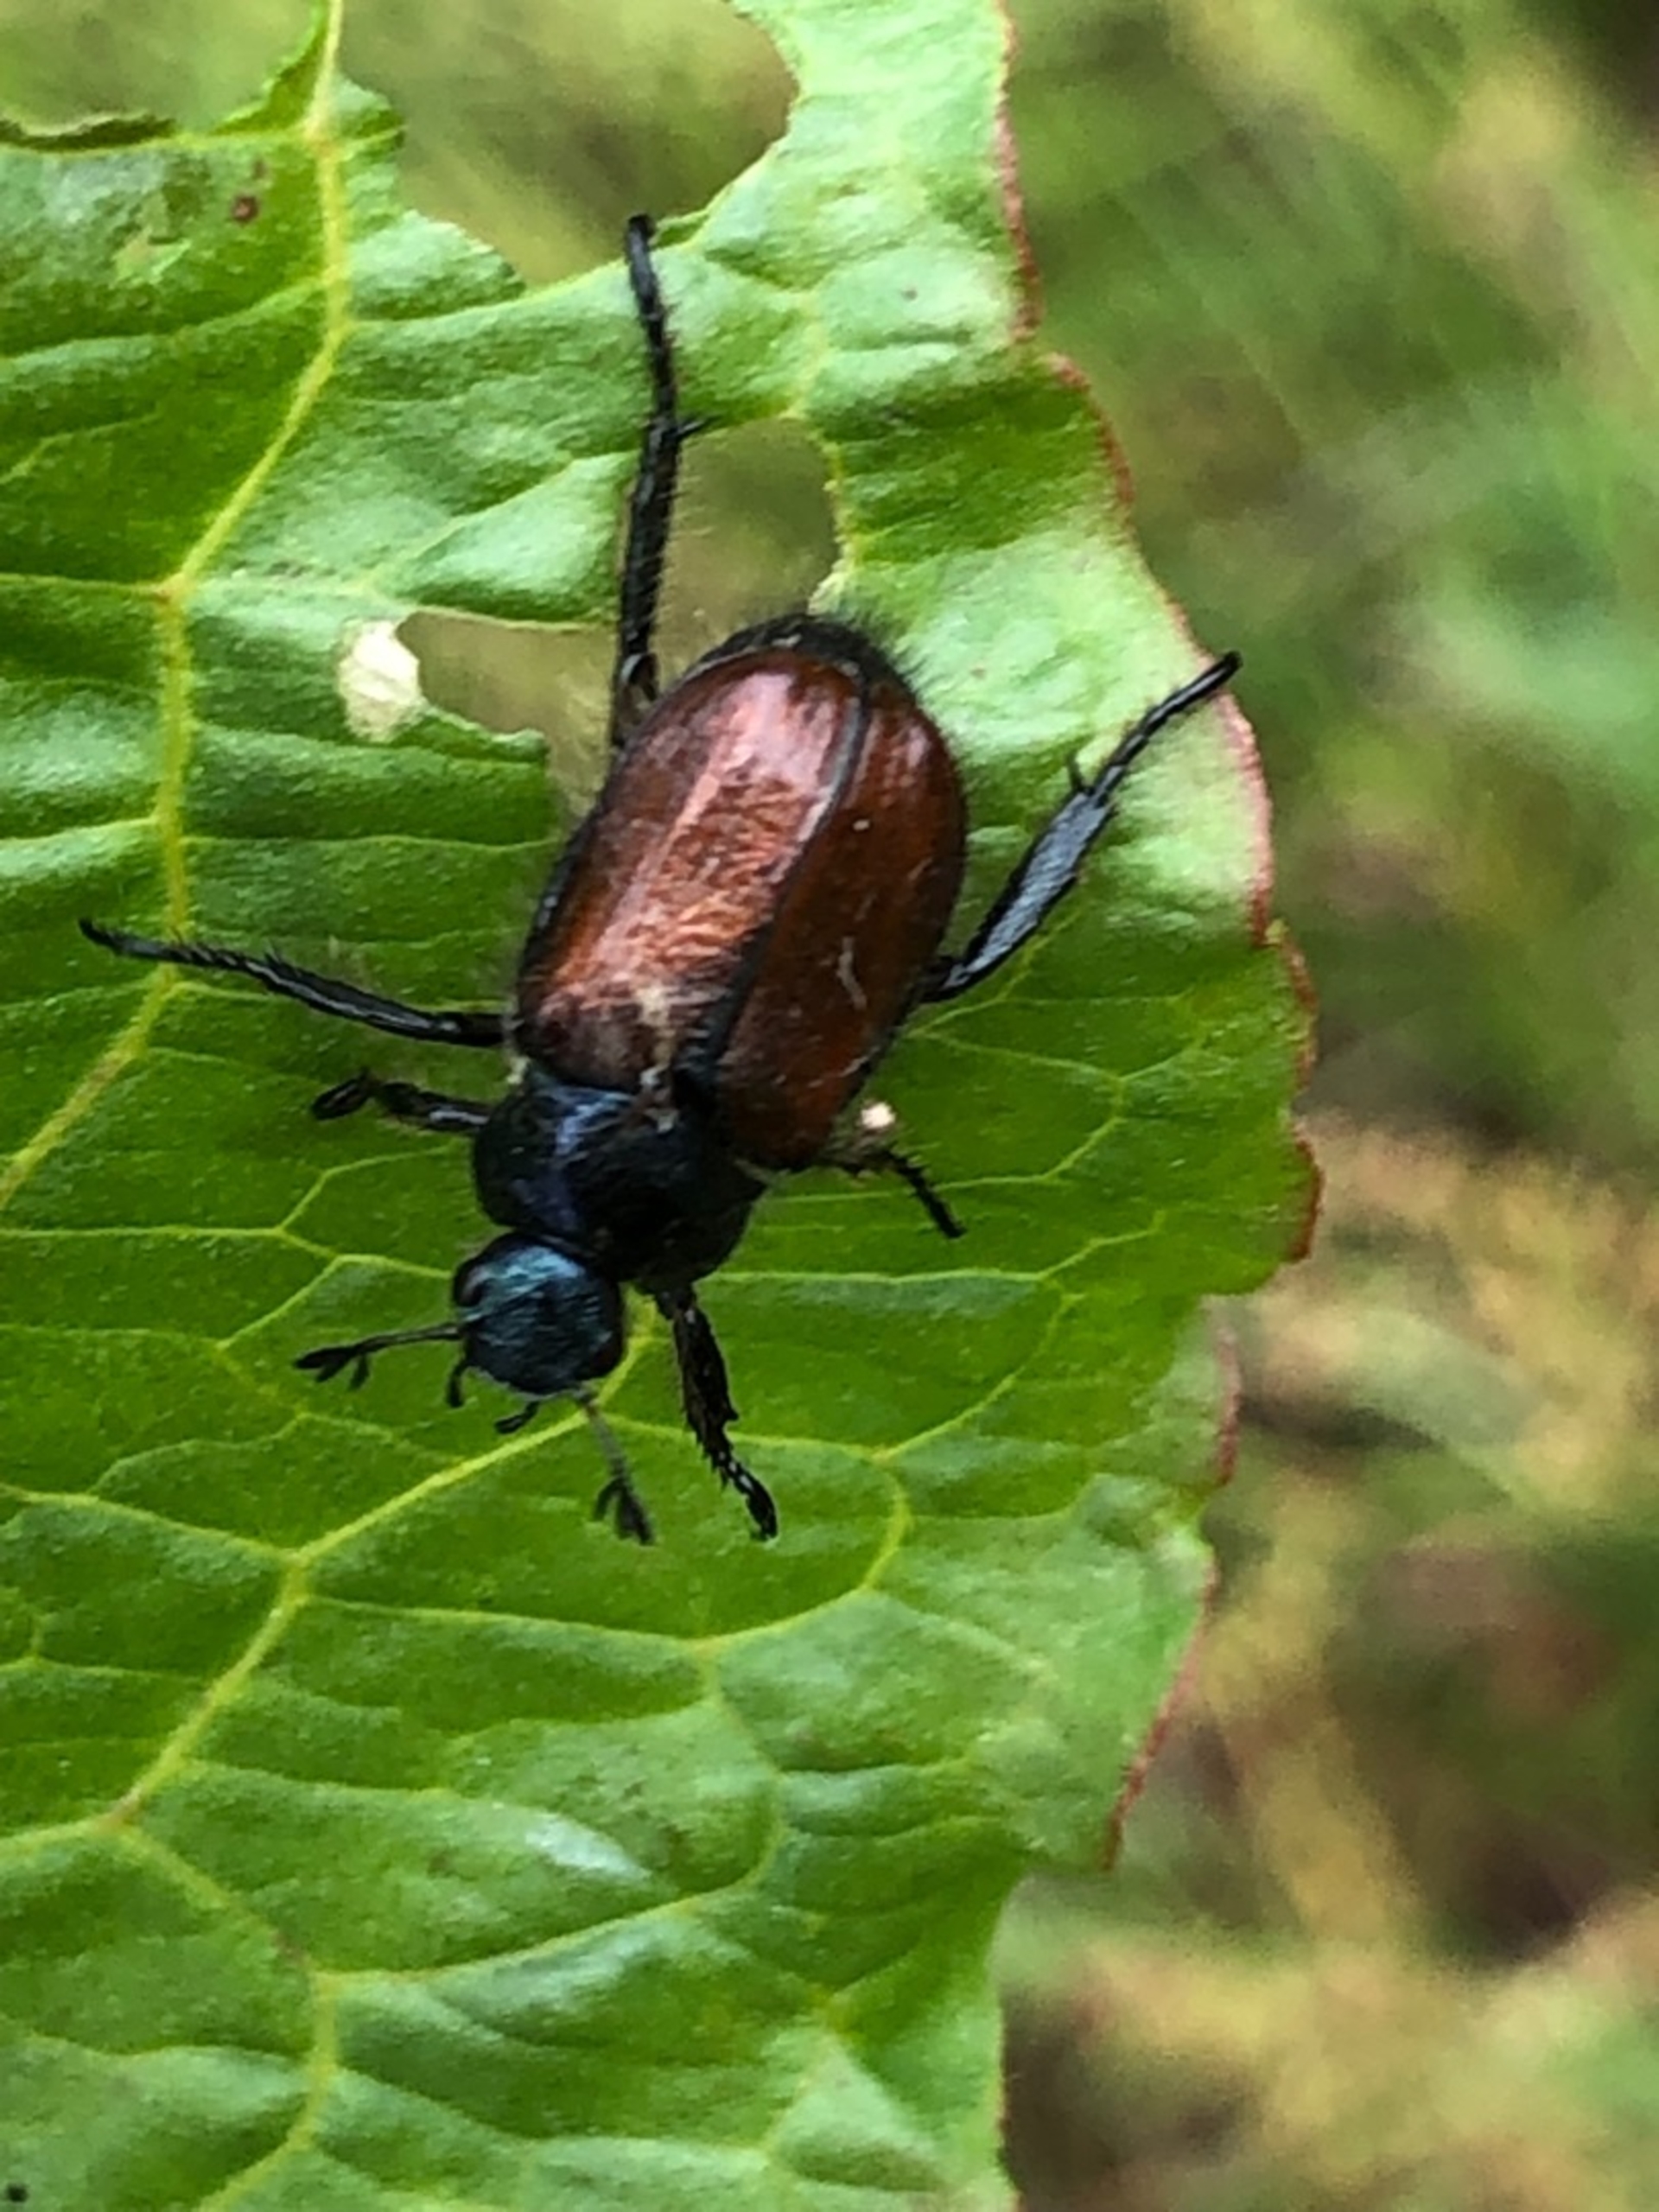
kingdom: Animalia
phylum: Arthropoda
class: Insecta
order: Coleoptera
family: Scarabaeidae
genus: Phyllopertha
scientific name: Phyllopertha horticola
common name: Gåsebille
